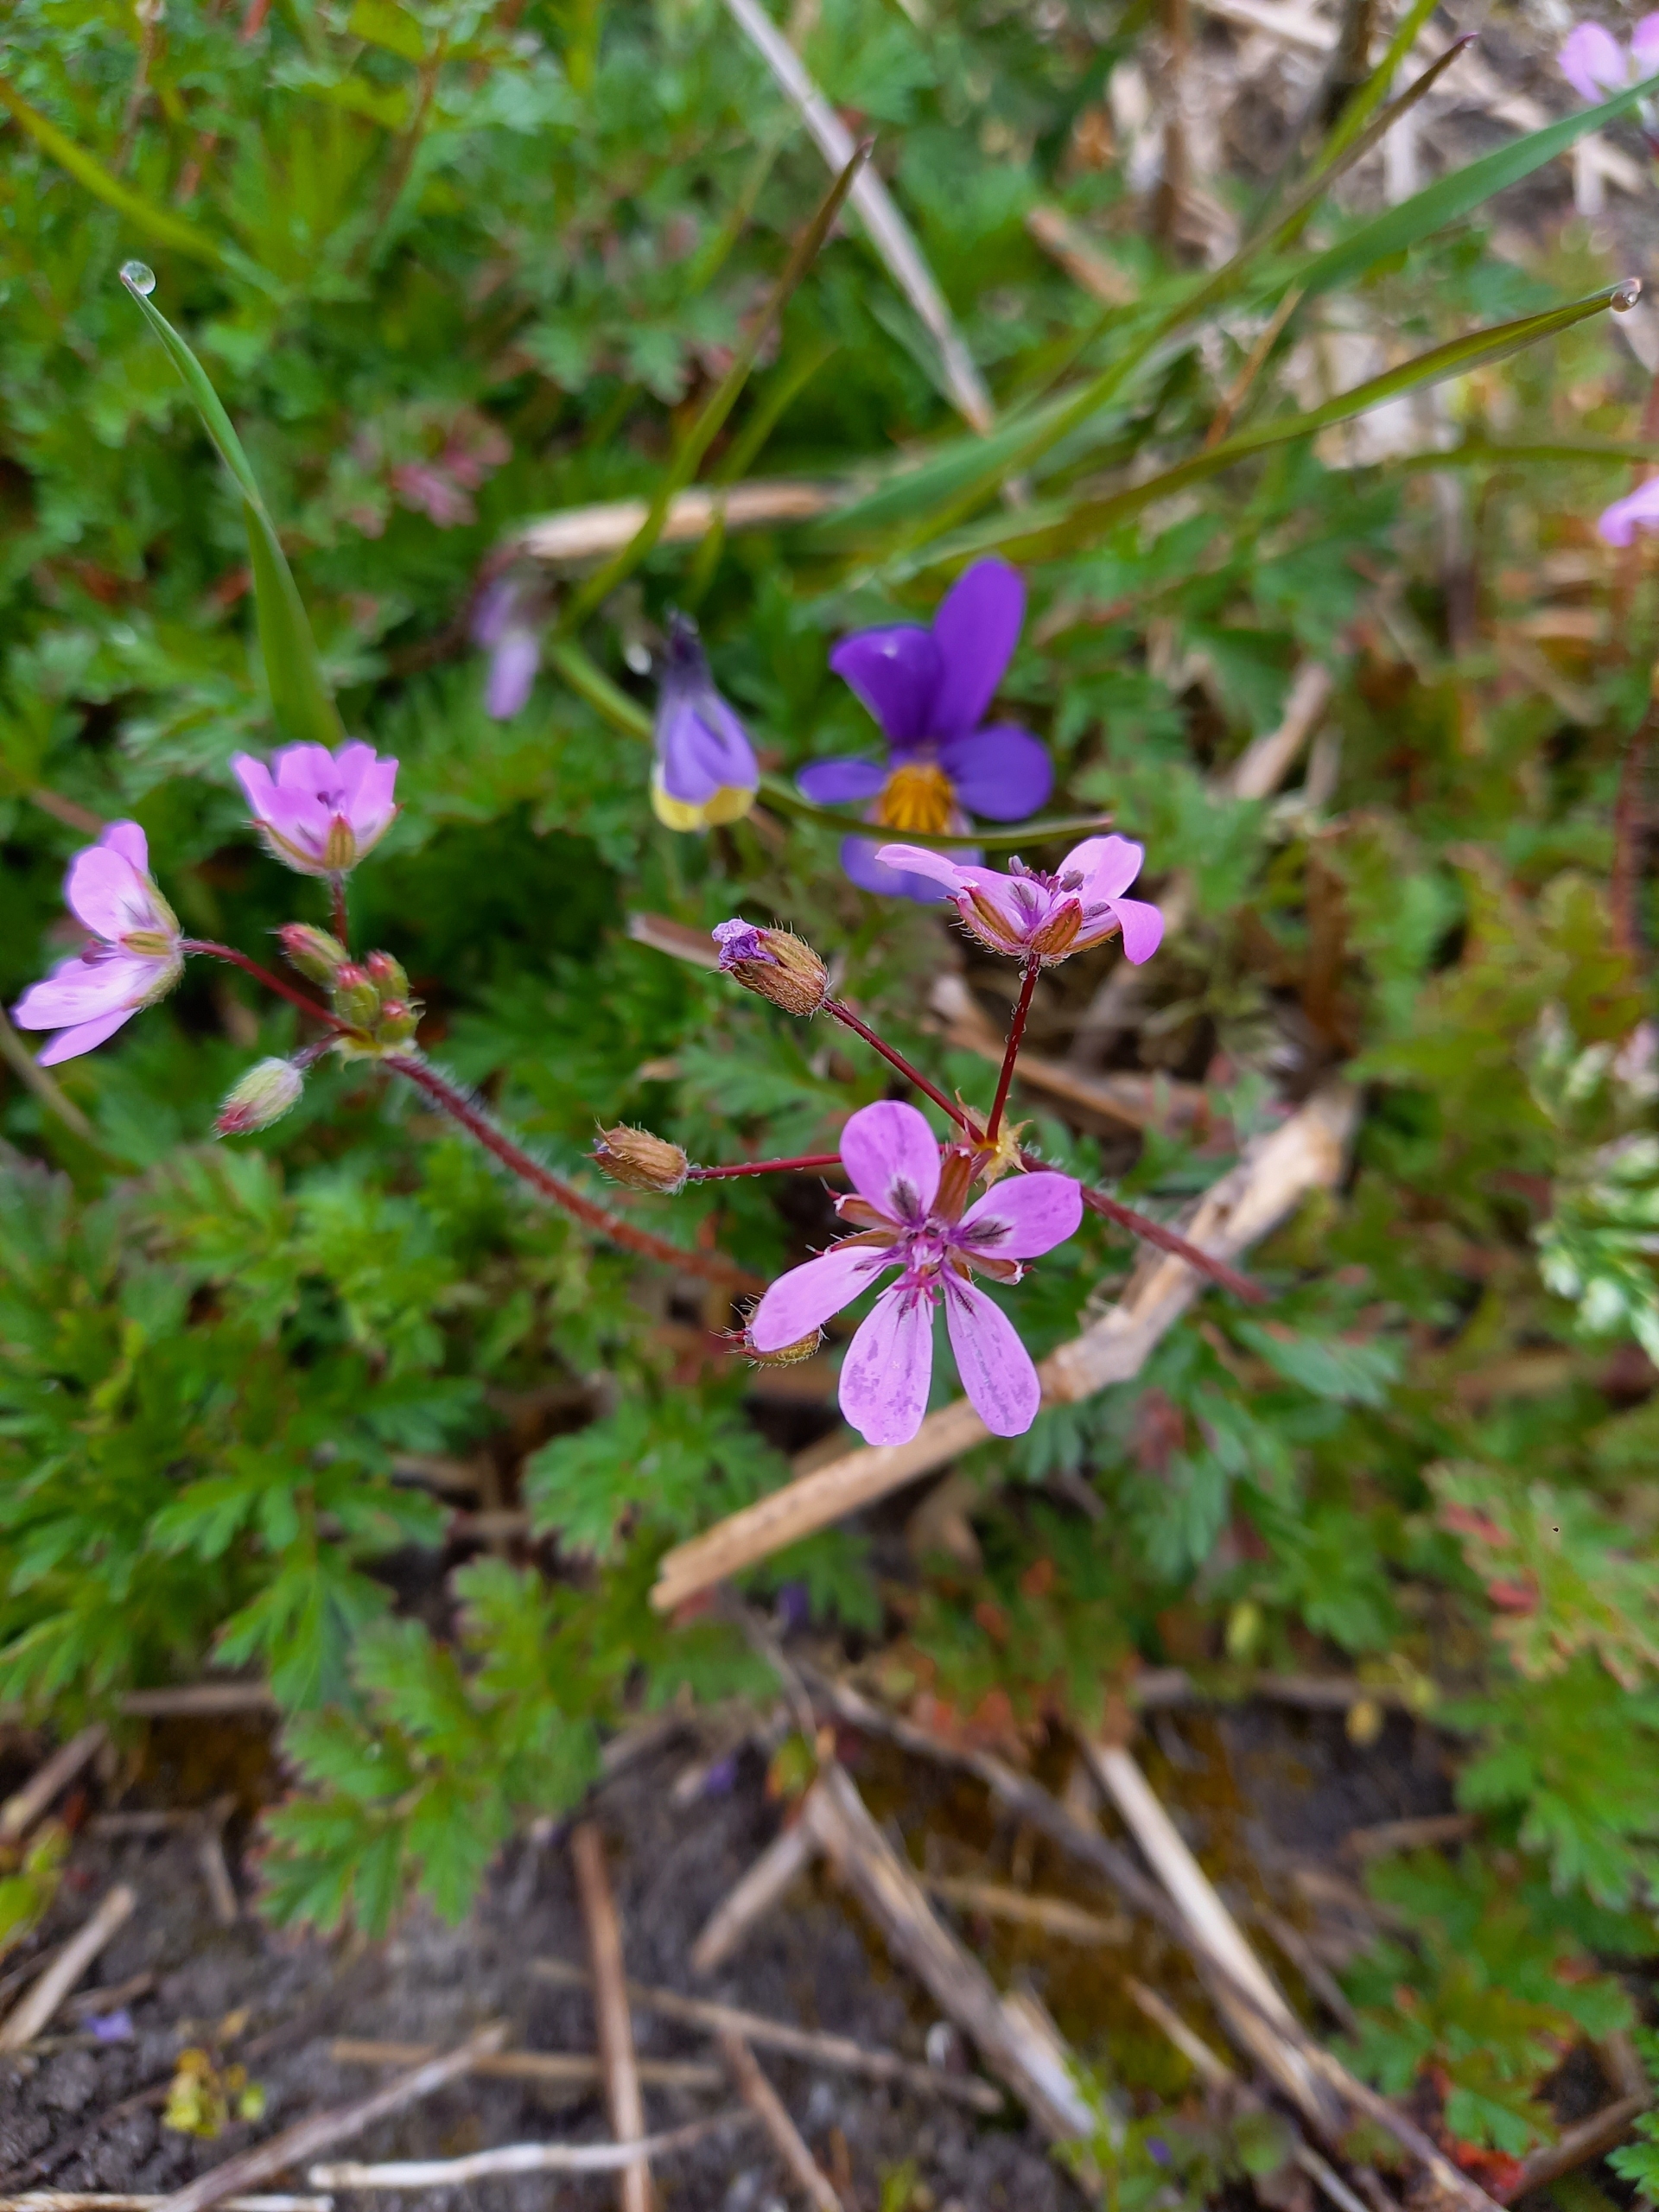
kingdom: Plantae
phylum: Tracheophyta
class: Magnoliopsida
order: Geraniales
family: Geraniaceae
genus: Erodium
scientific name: Erodium cicutarium
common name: Hejrenæb
